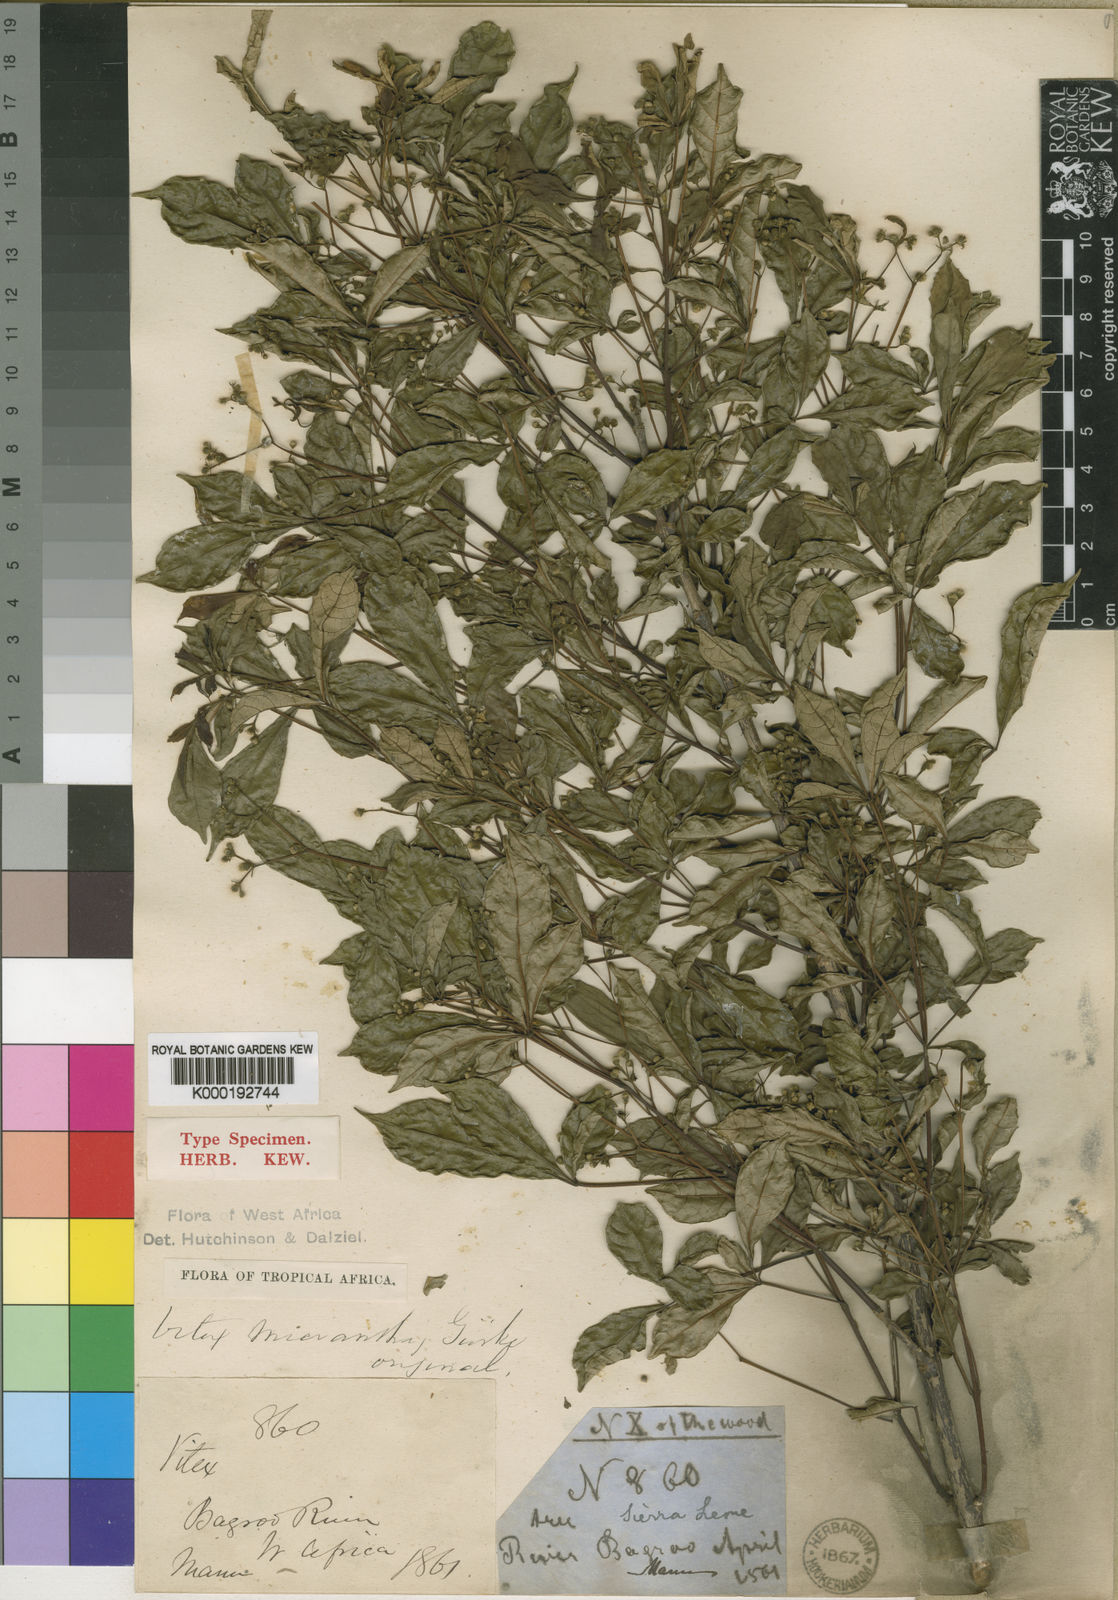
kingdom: Plantae
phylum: Tracheophyta
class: Magnoliopsida
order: Lamiales
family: Lamiaceae
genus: Vitex
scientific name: Vitex
